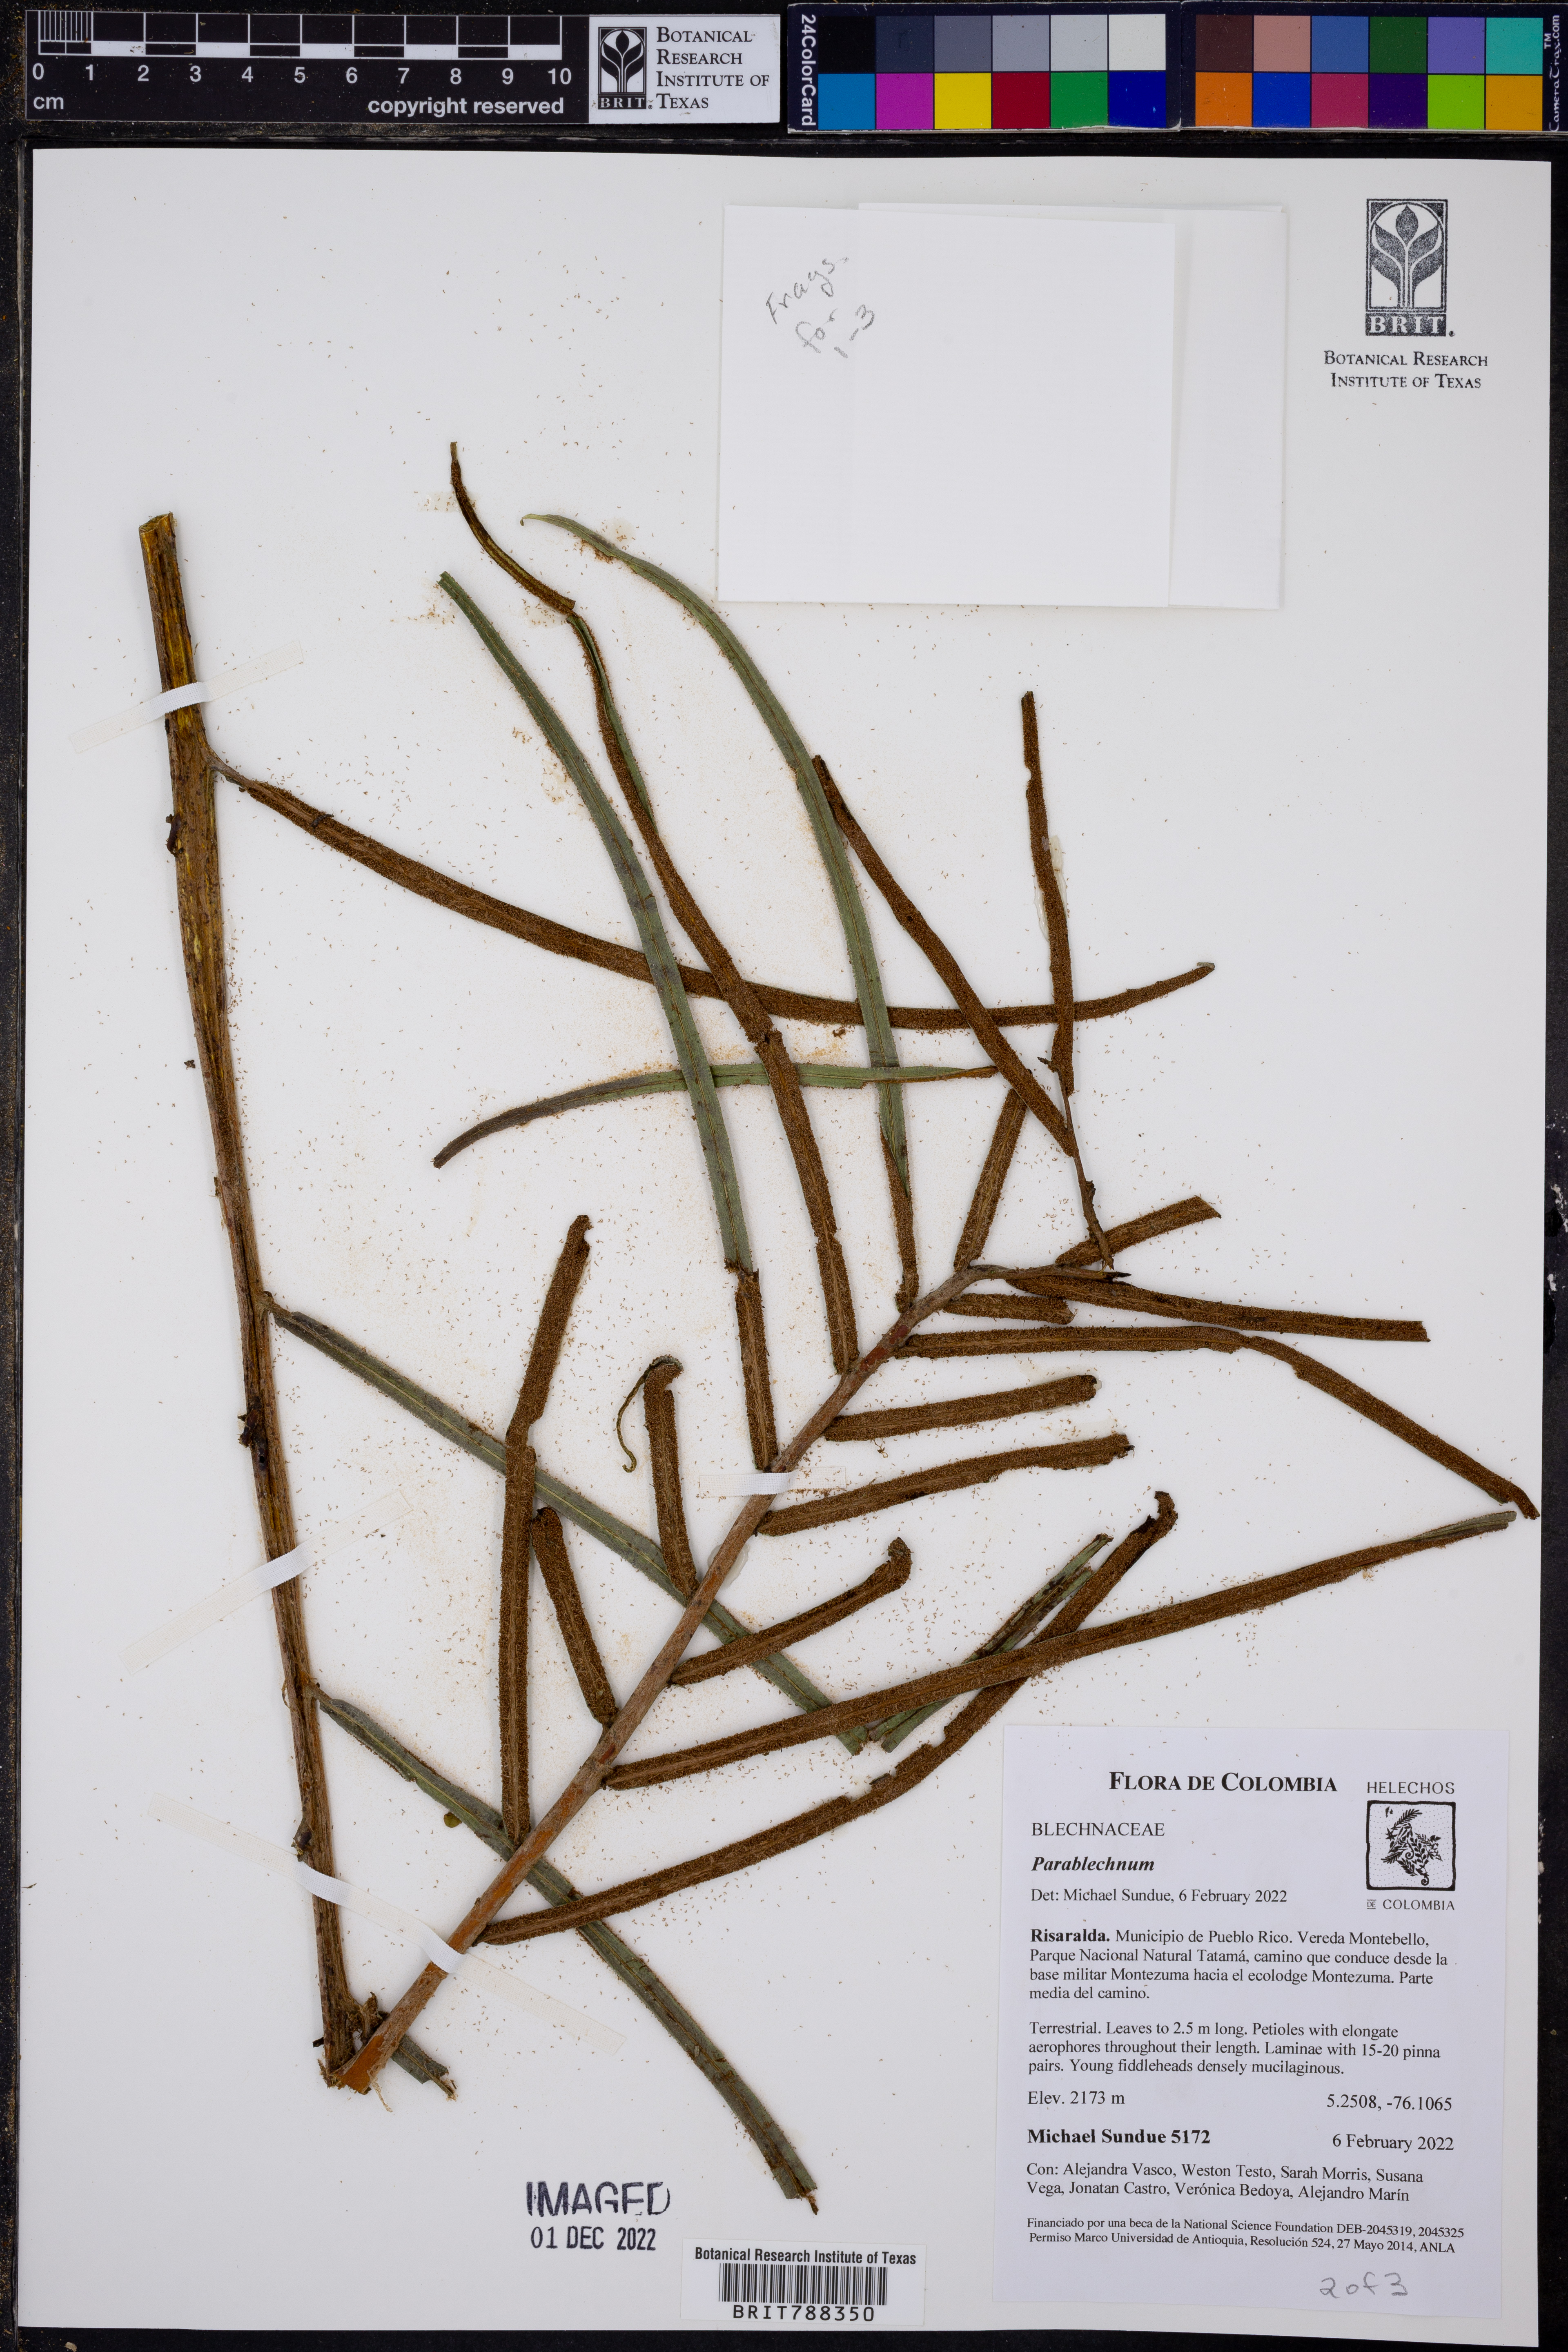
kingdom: Plantae
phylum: Tracheophyta
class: Polypodiopsida
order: Polypodiales
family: Blechnaceae
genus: Parablechnum
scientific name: Parablechnum lechleri
